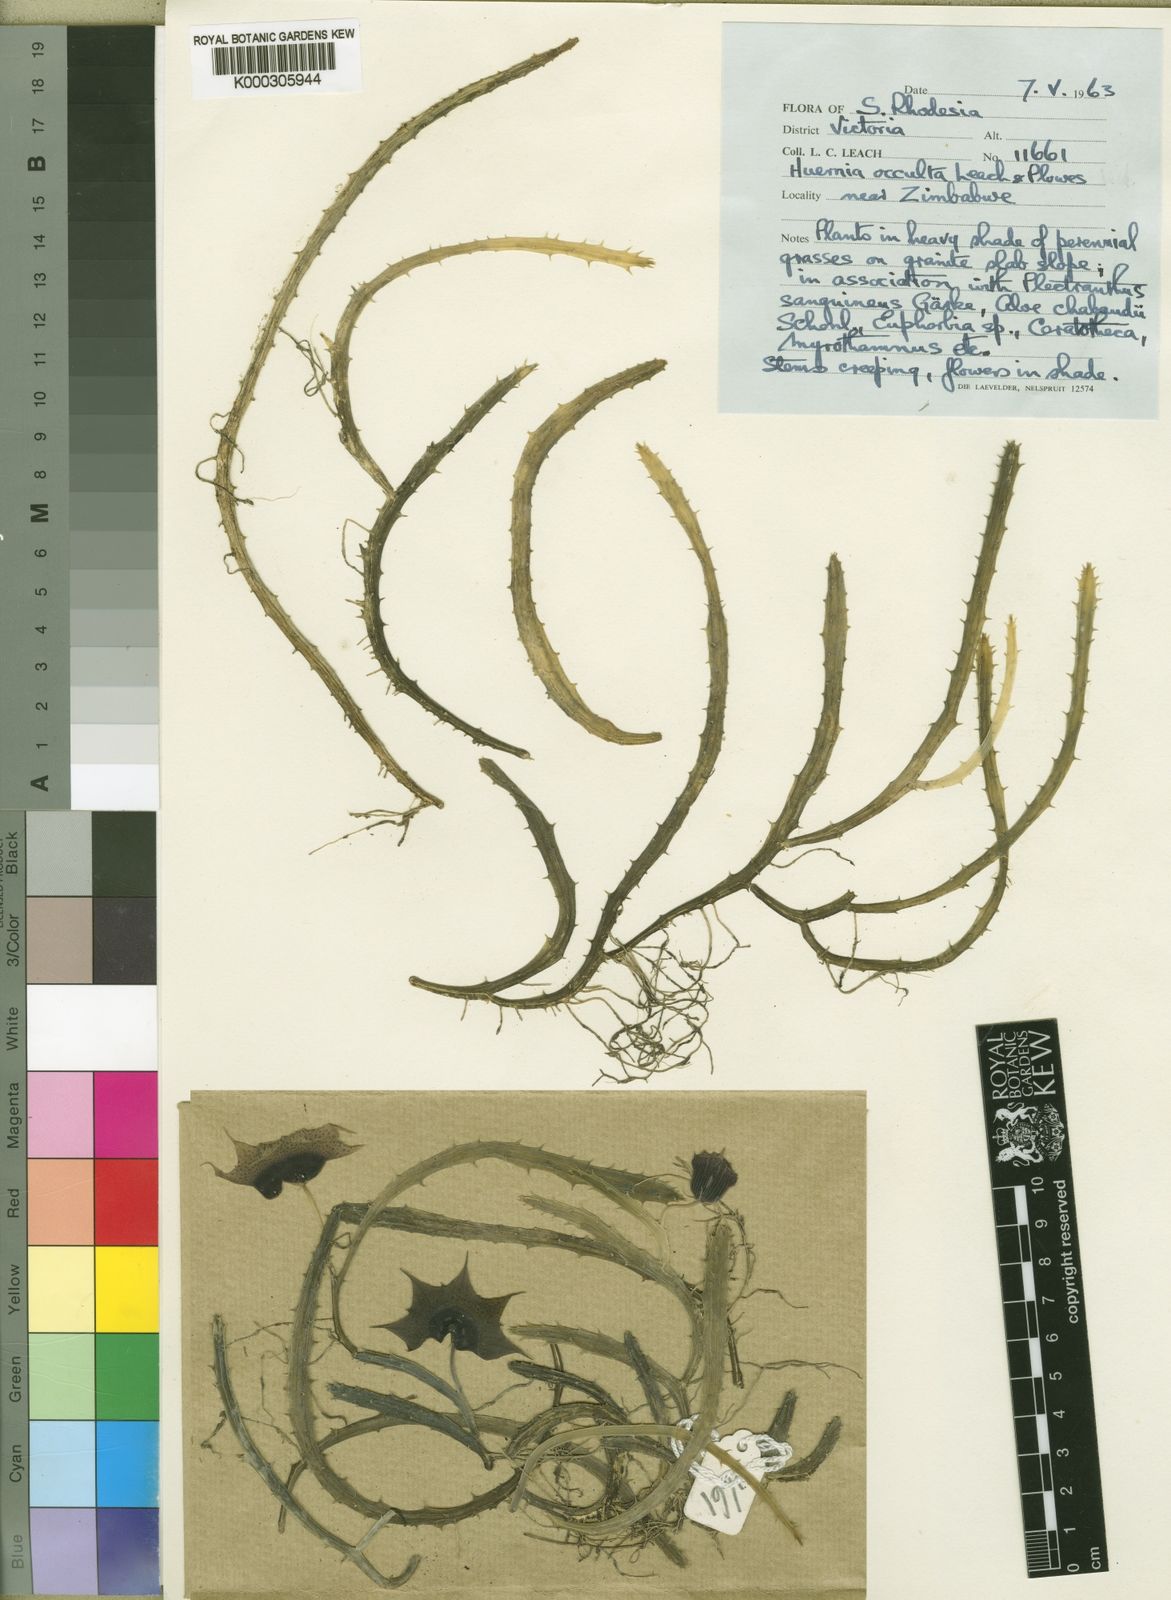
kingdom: Plantae
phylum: Tracheophyta
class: Magnoliopsida
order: Gentianales
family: Apocynaceae
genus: Ceropegia
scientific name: Ceropegia occultiflora
